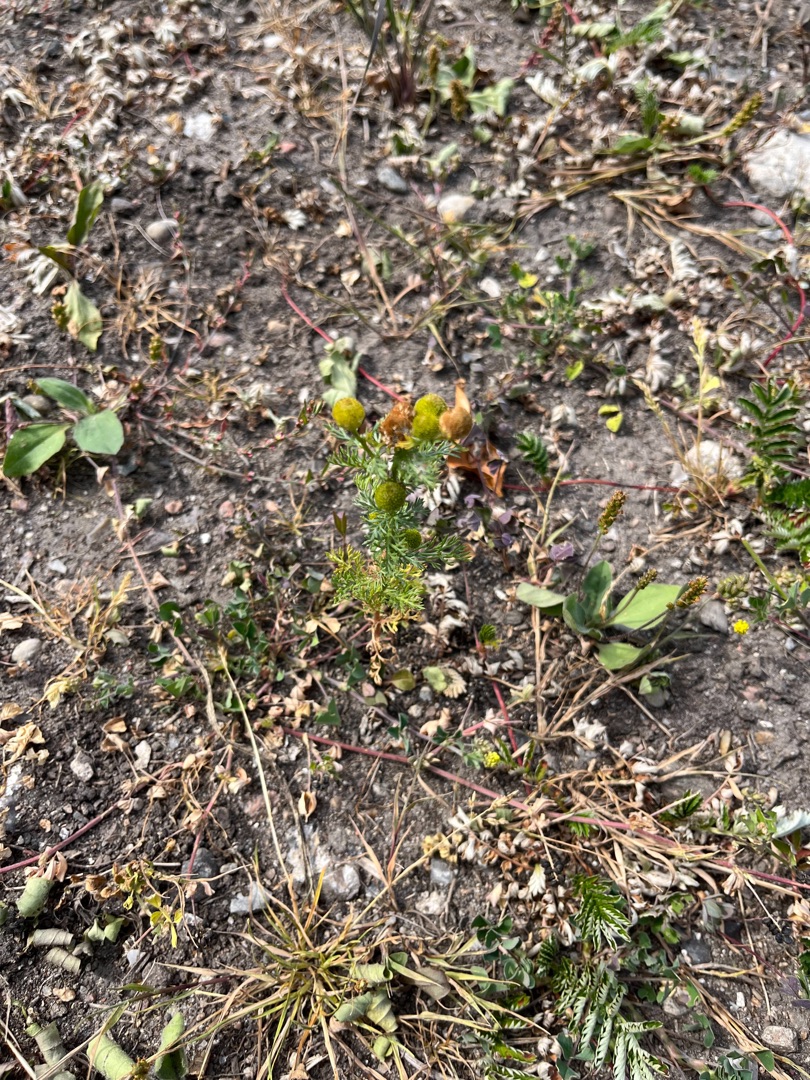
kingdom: Plantae
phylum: Tracheophyta
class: Magnoliopsida
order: Asterales
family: Asteraceae
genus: Matricaria
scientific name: Matricaria discoidea
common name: Skive-kamille
